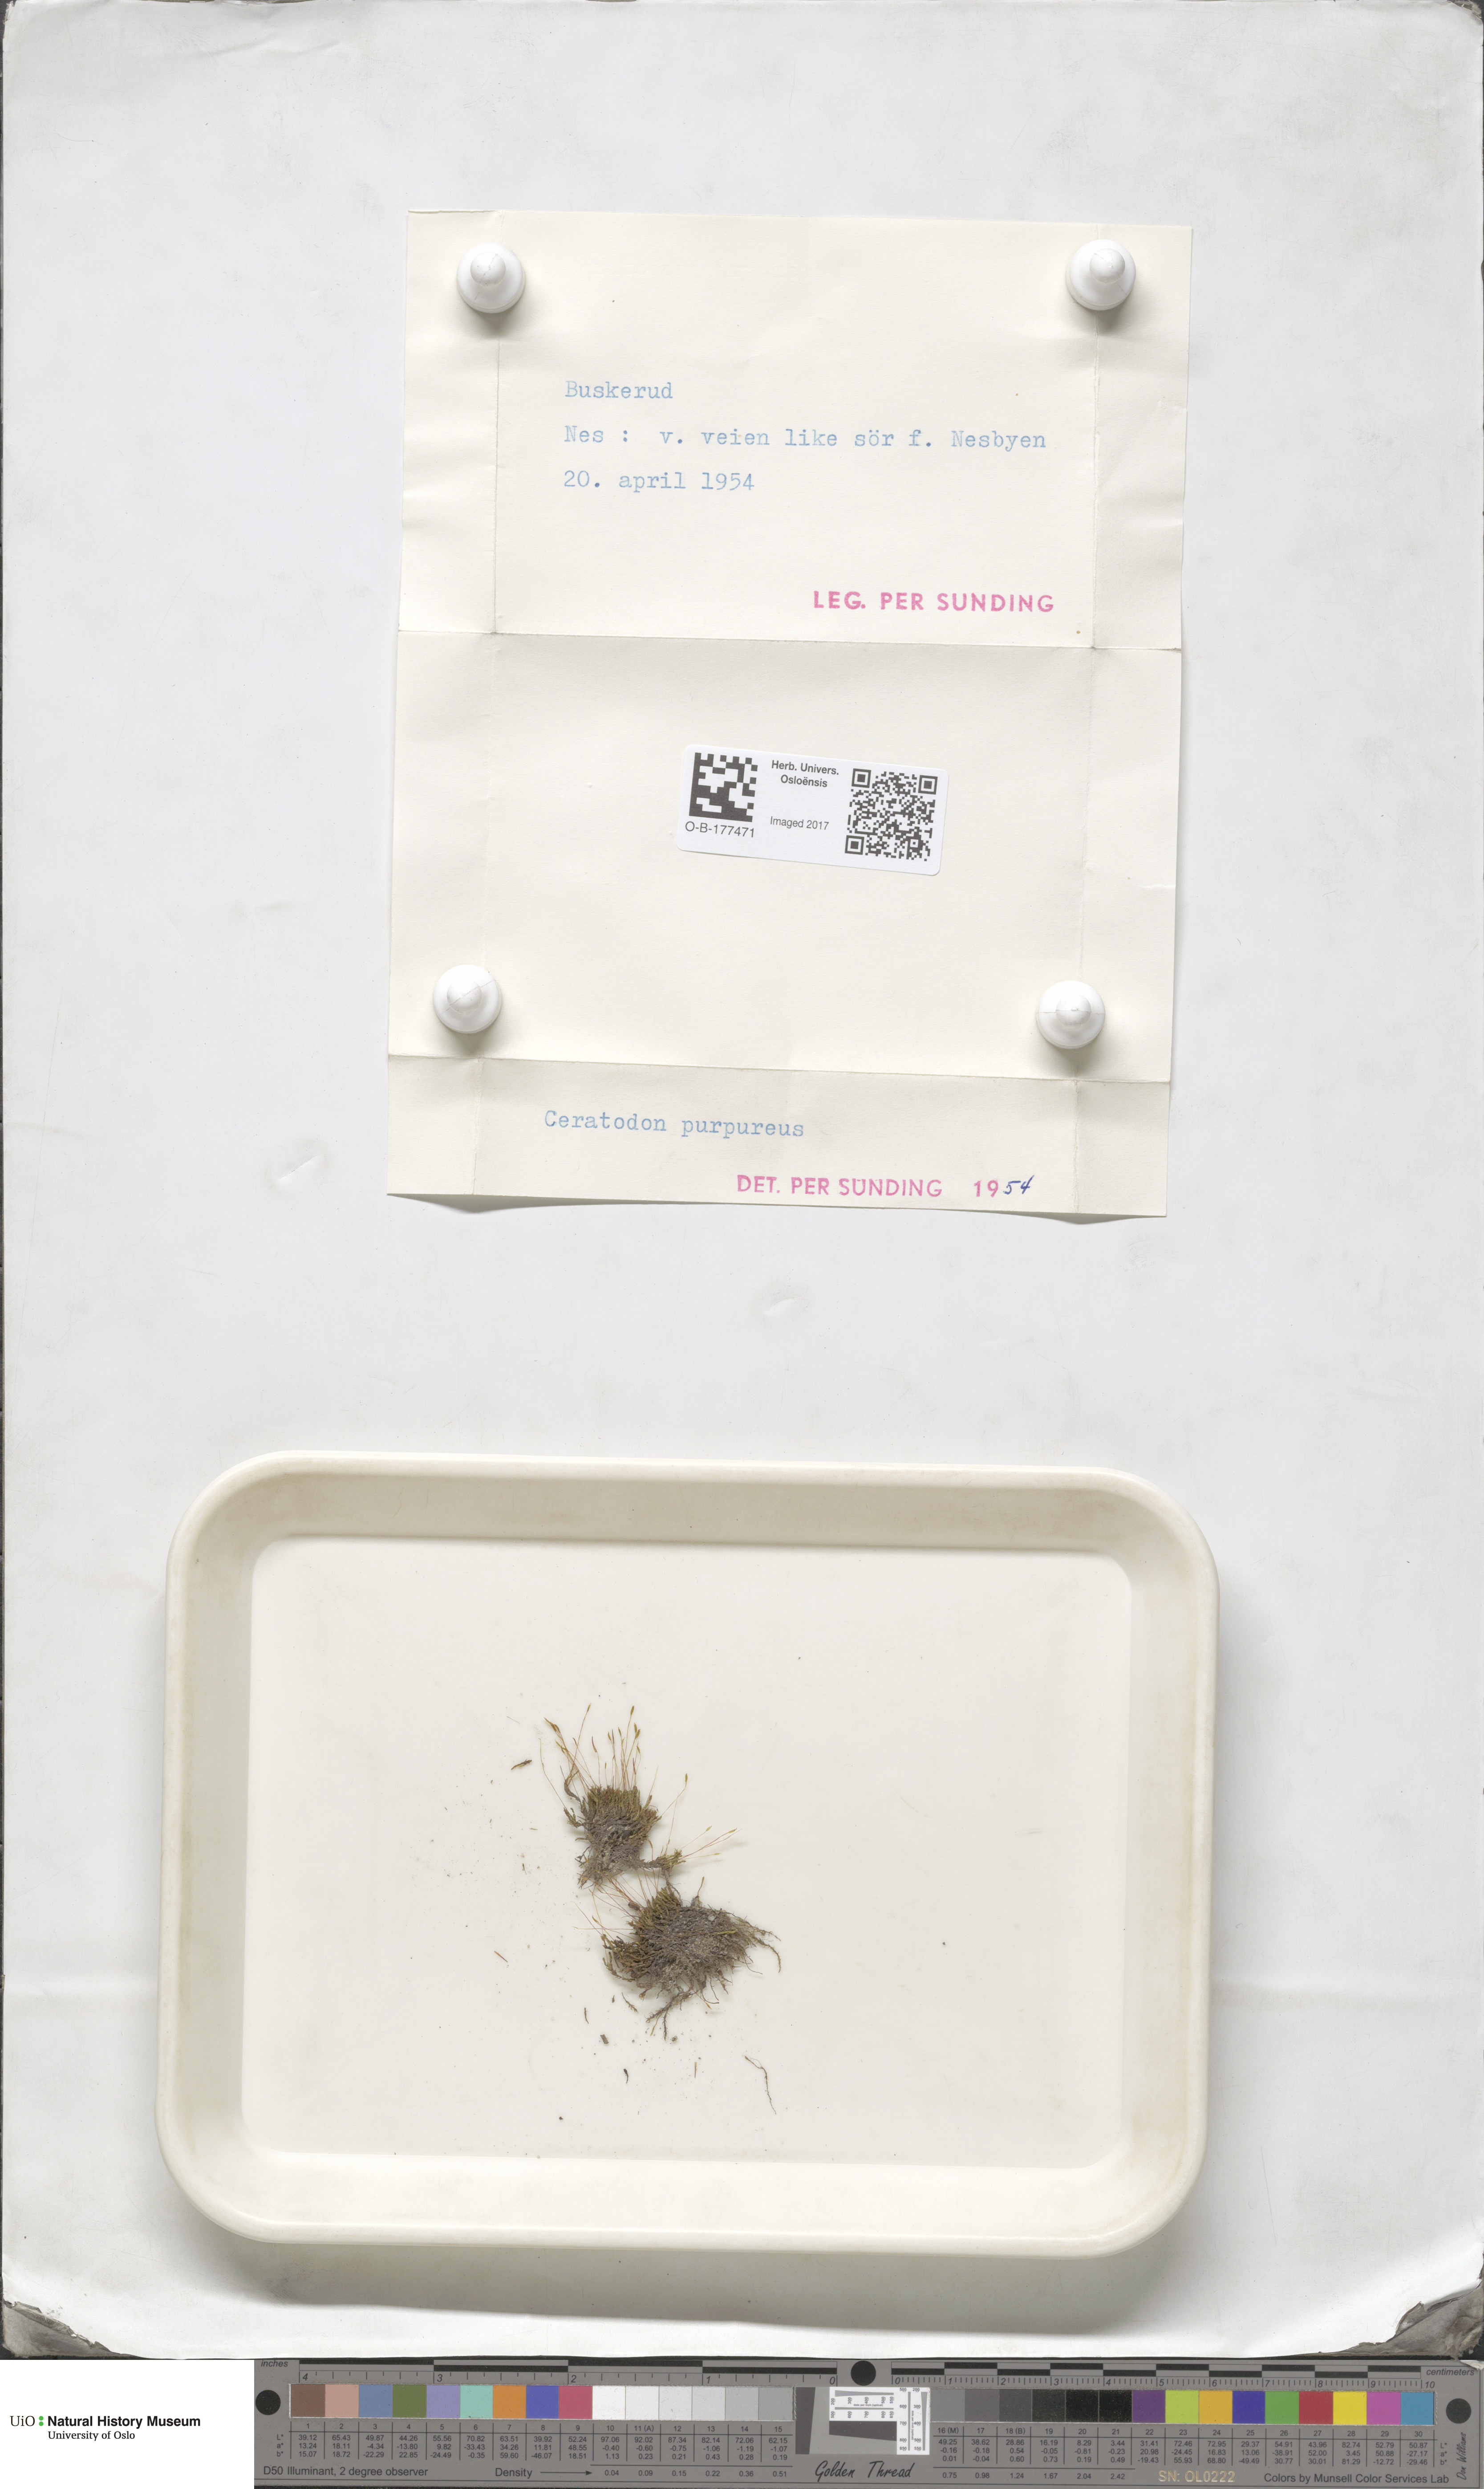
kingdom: Plantae
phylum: Bryophyta
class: Bryopsida
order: Dicranales
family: Ditrichaceae
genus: Ceratodon
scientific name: Ceratodon purpureus
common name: Redshank
